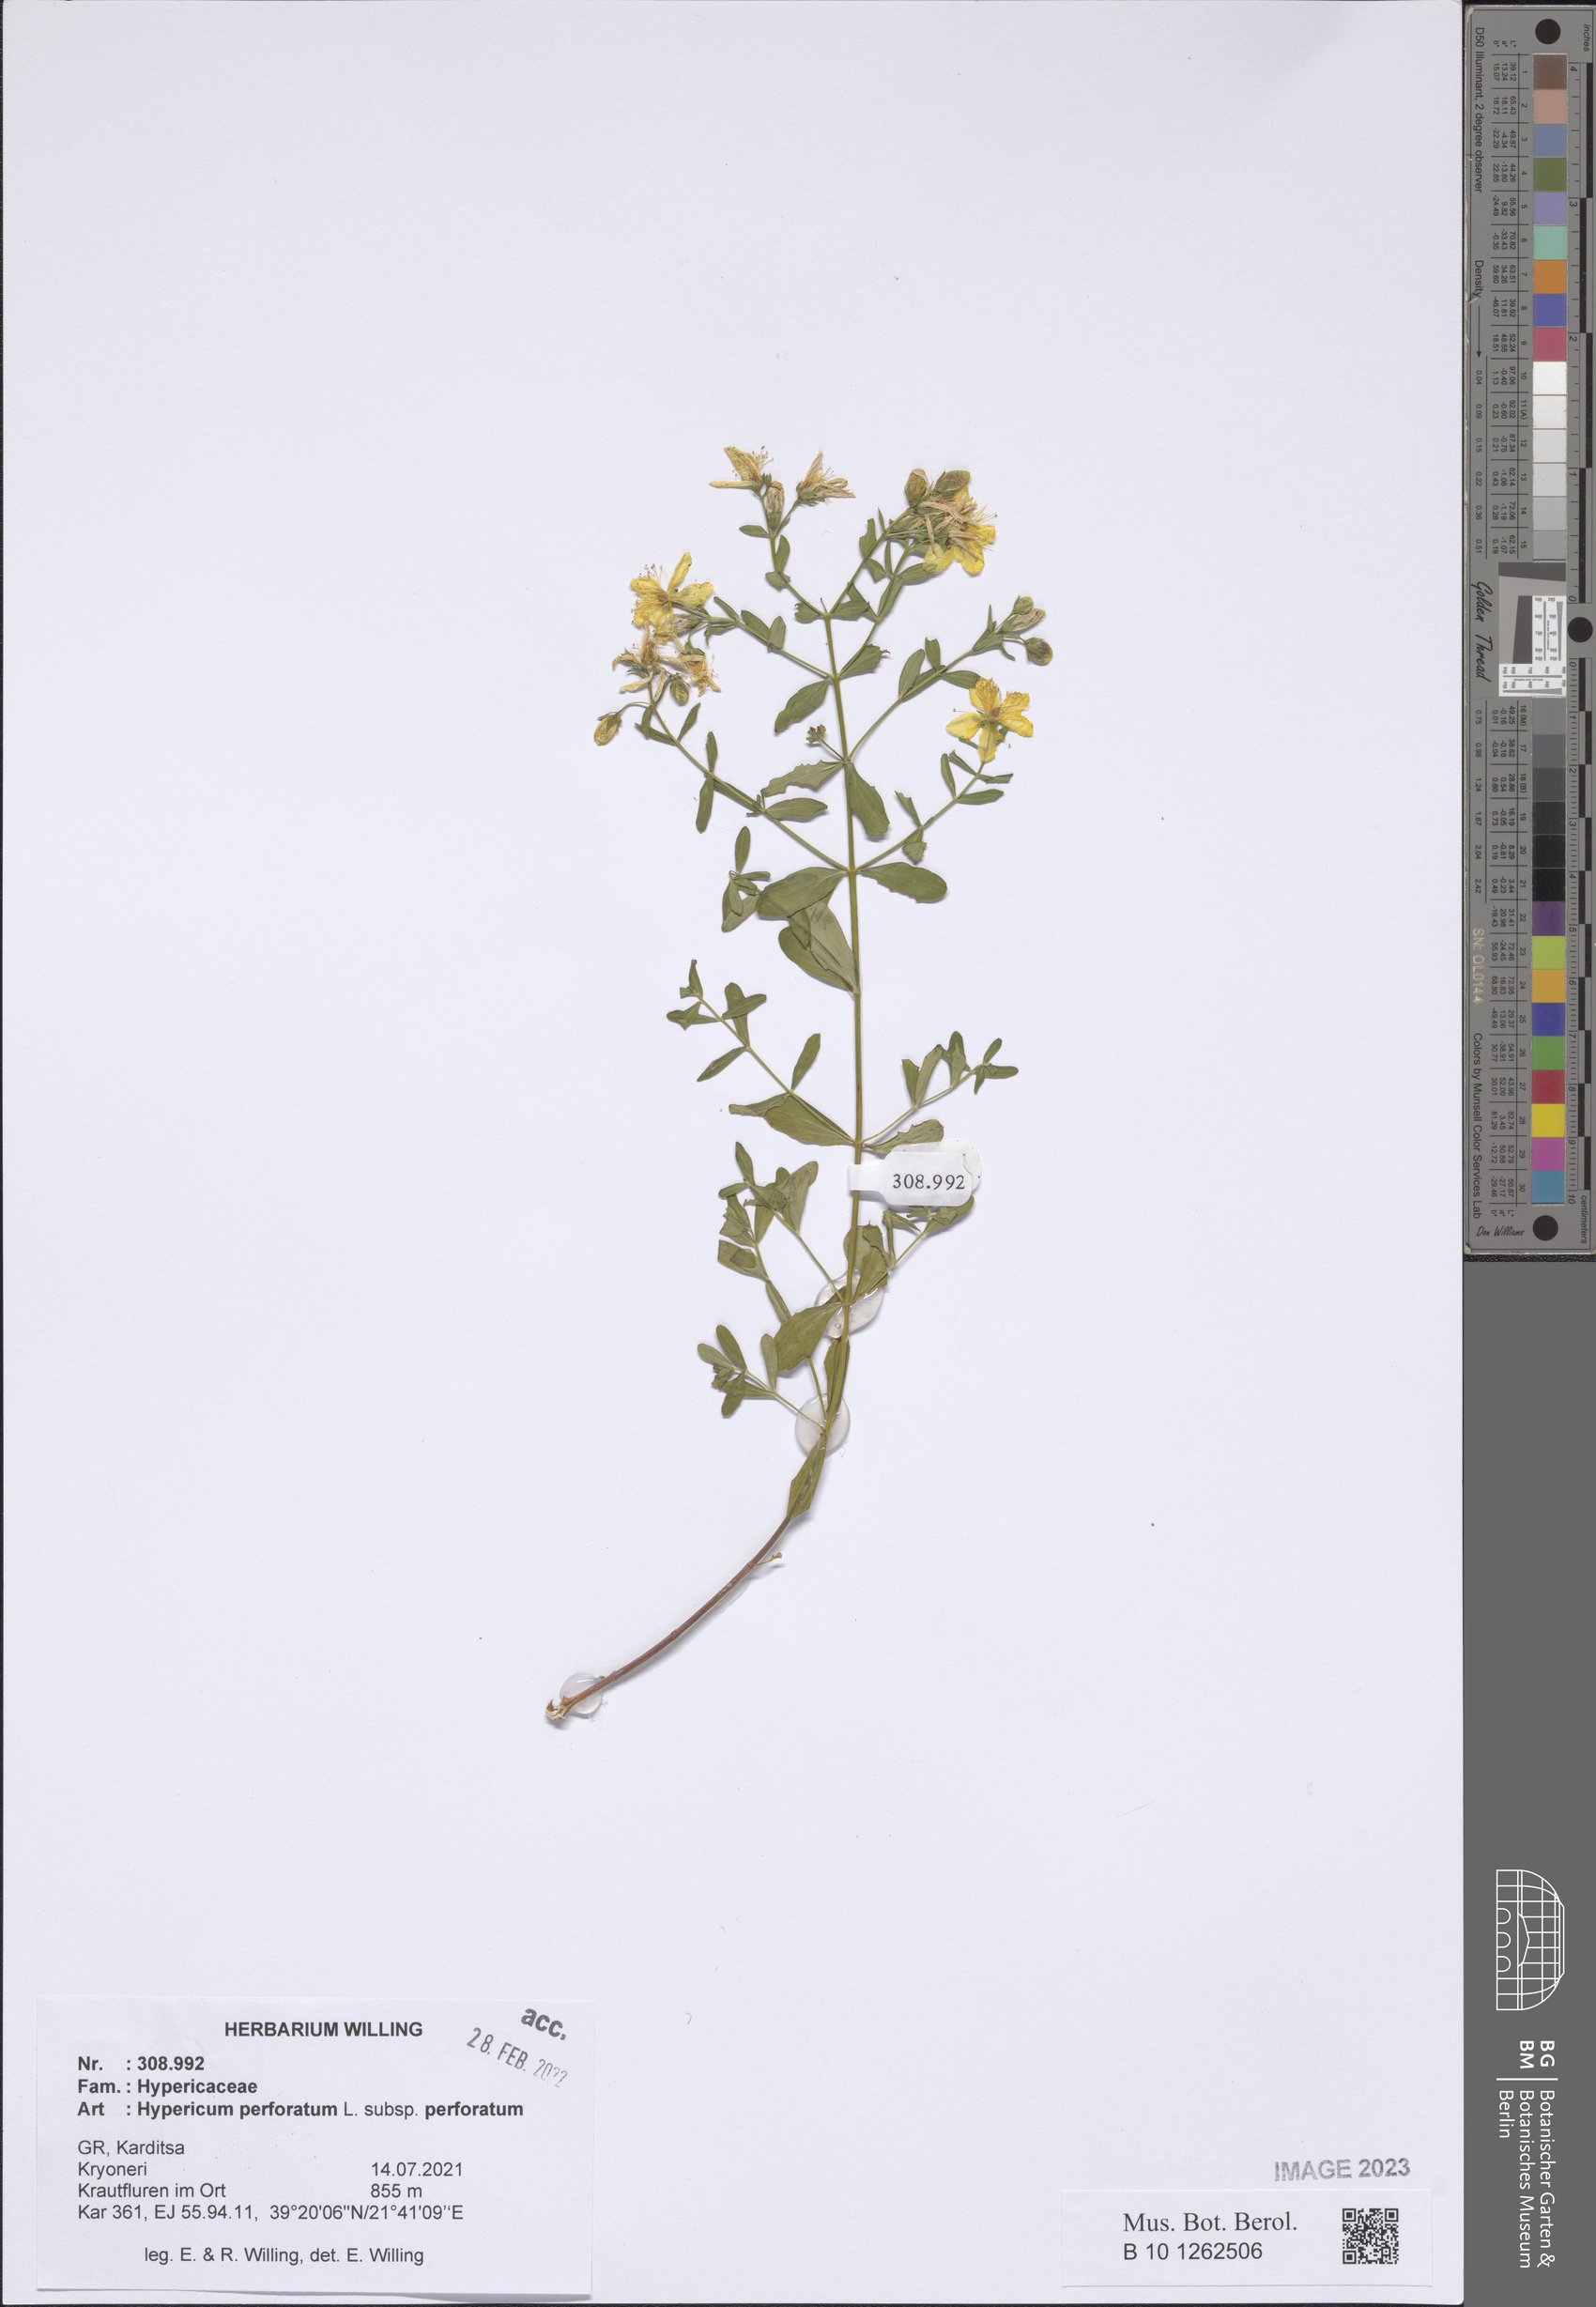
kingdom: Plantae
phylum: Tracheophyta
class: Magnoliopsida
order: Malpighiales
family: Hypericaceae
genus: Hypericum
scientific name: Hypericum perforatum
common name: Common st. johnswort
